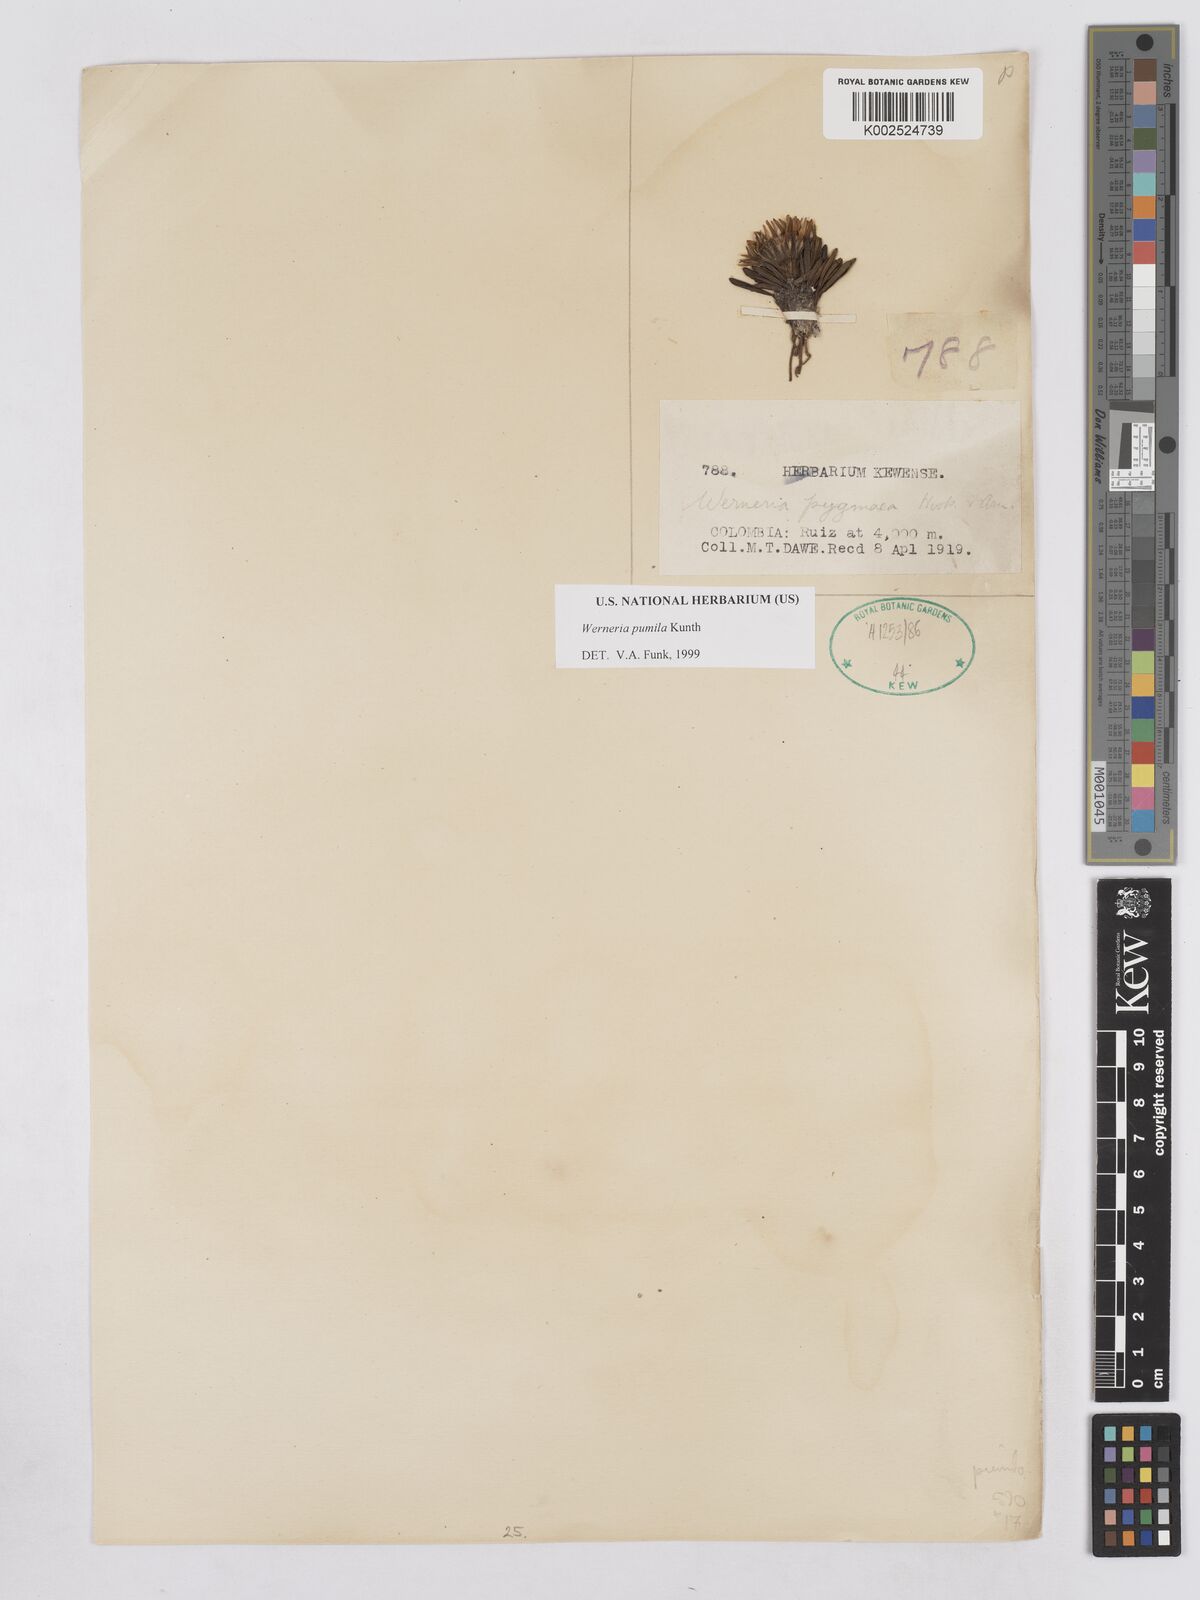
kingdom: Plantae
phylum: Tracheophyta
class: Magnoliopsida
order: Asterales
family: Asteraceae
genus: Rockhausenia
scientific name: Rockhausenia pumila
